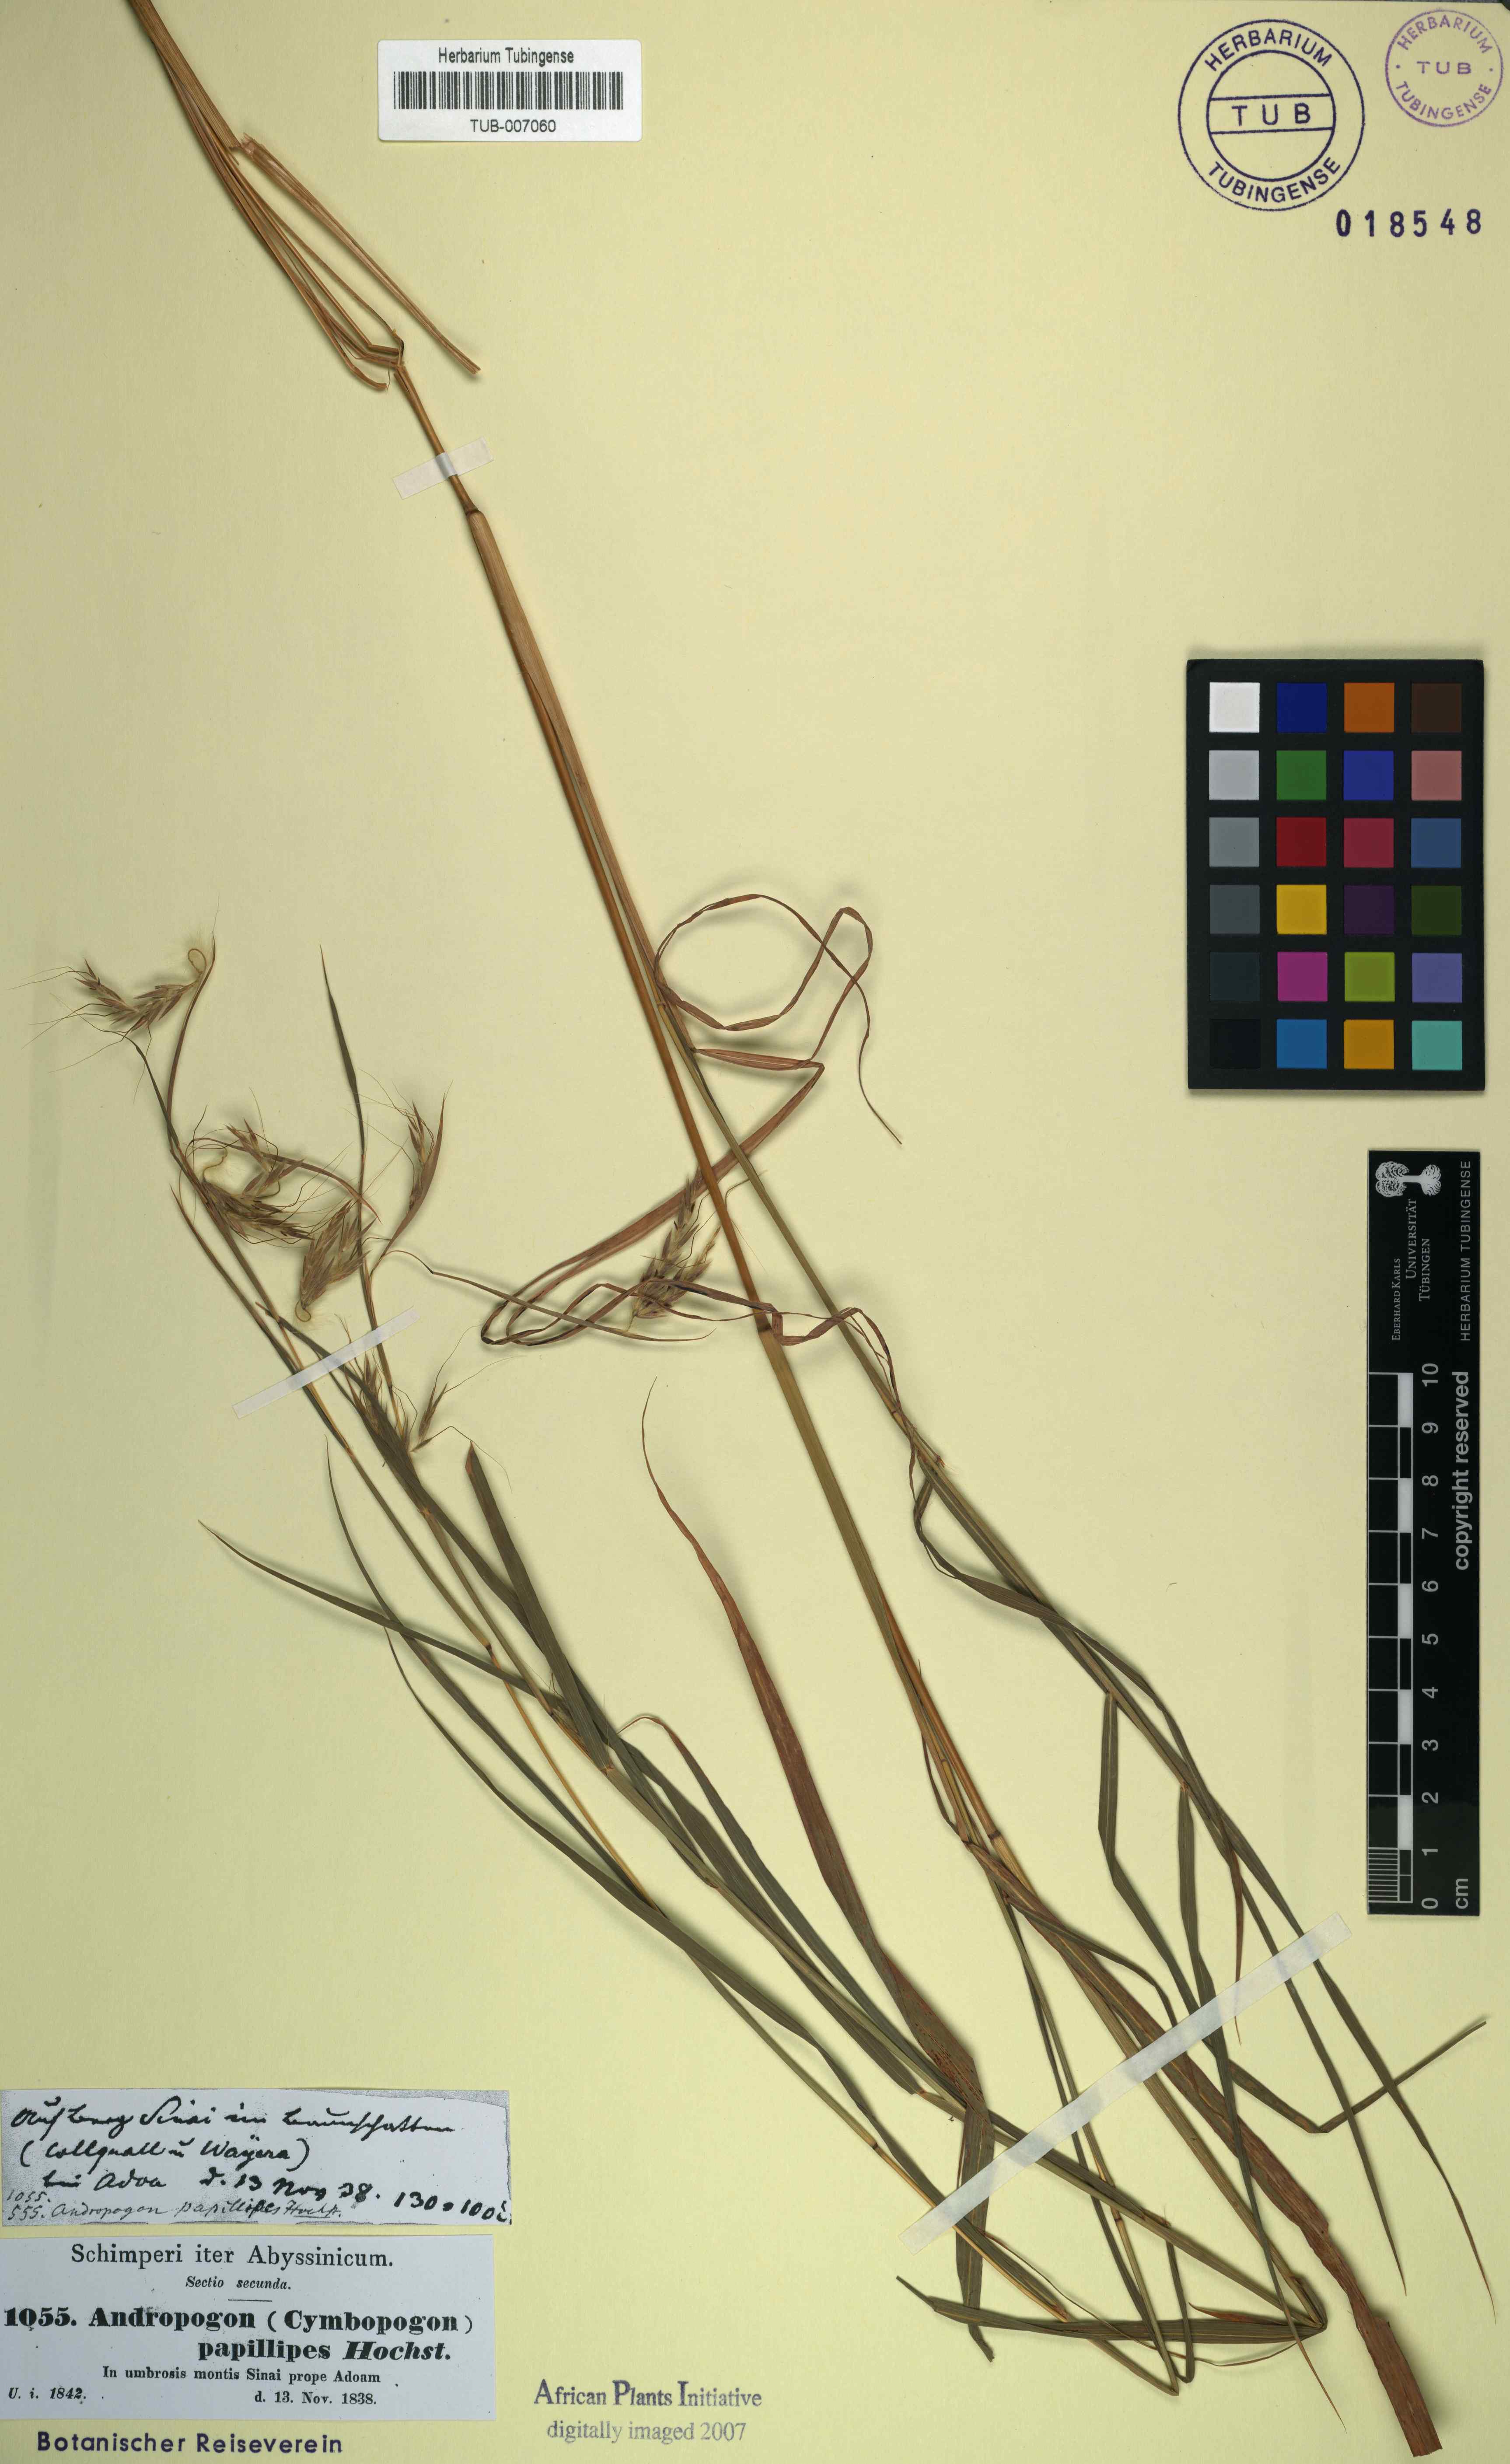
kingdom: Plantae
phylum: Tracheophyta
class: Liliopsida
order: Poales
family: Poaceae
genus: Hyparrhenia
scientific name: Hyparrhenia papillipes
